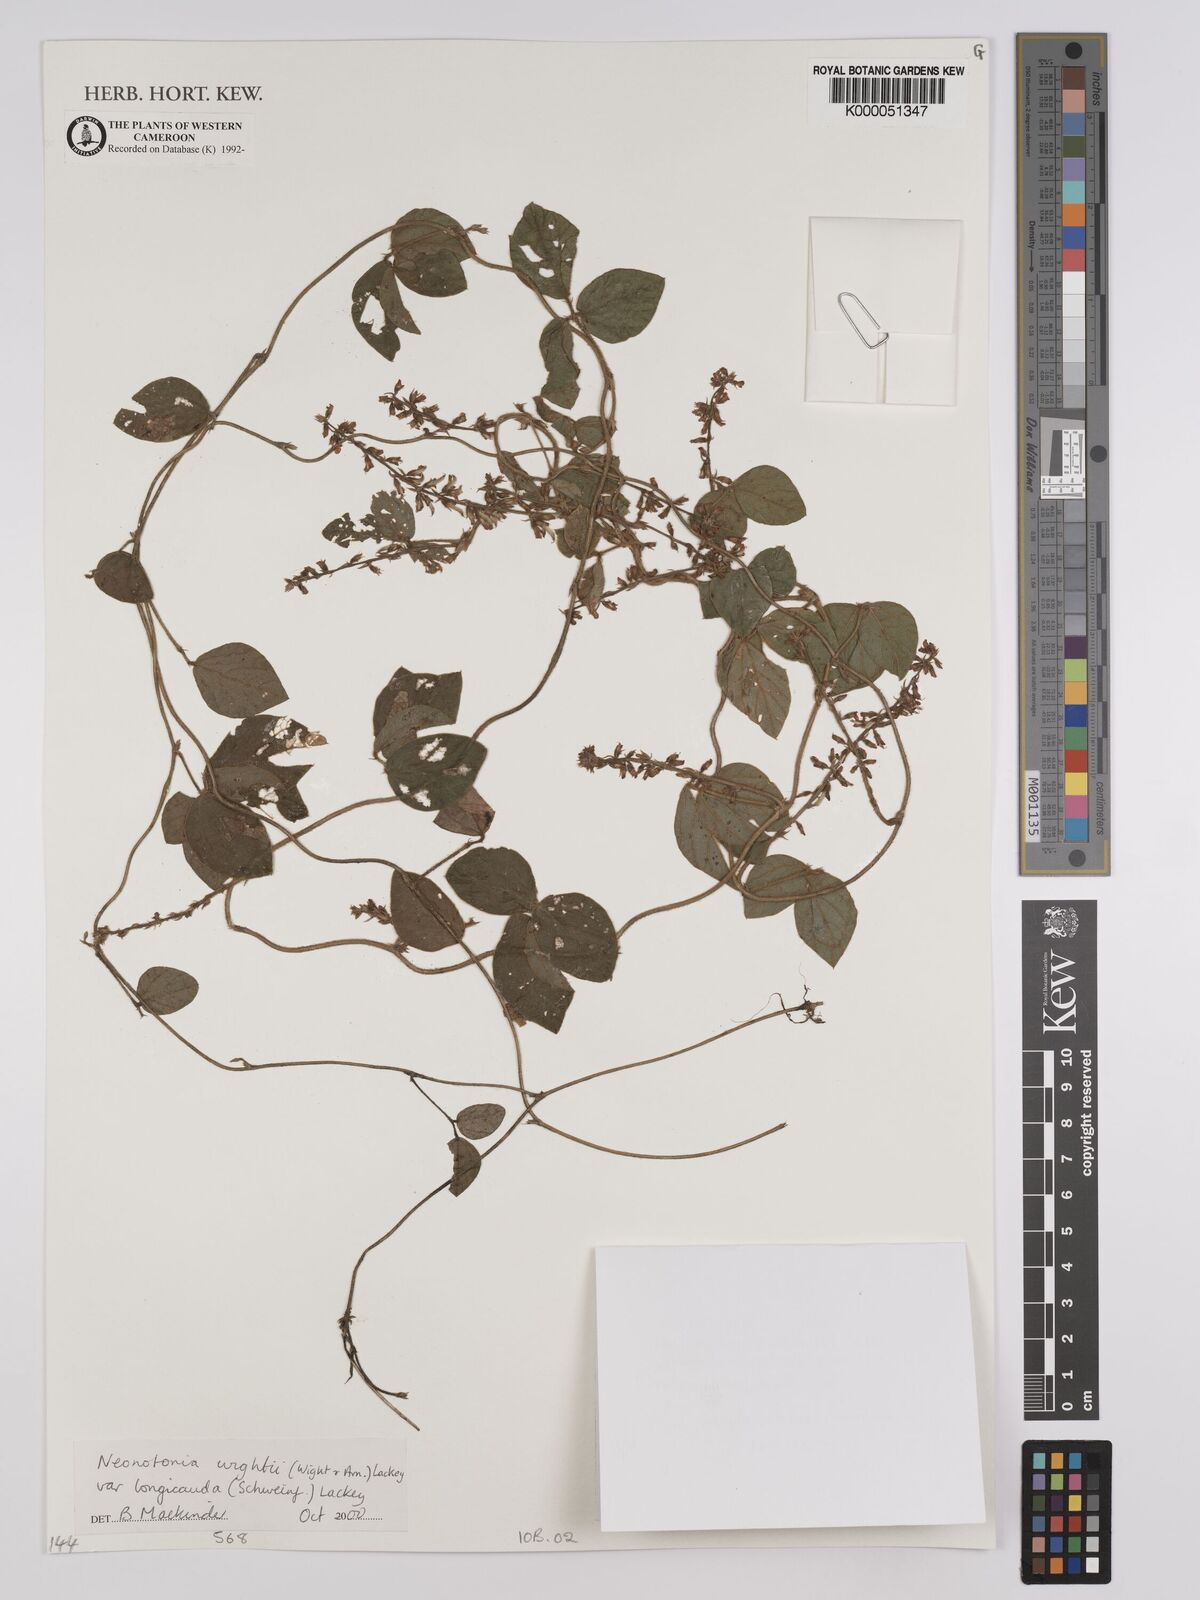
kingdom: Plantae
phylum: Tracheophyta
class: Magnoliopsida
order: Fabales
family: Fabaceae
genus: Neonotonia
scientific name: Neonotonia wightii
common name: Perennial soybean
